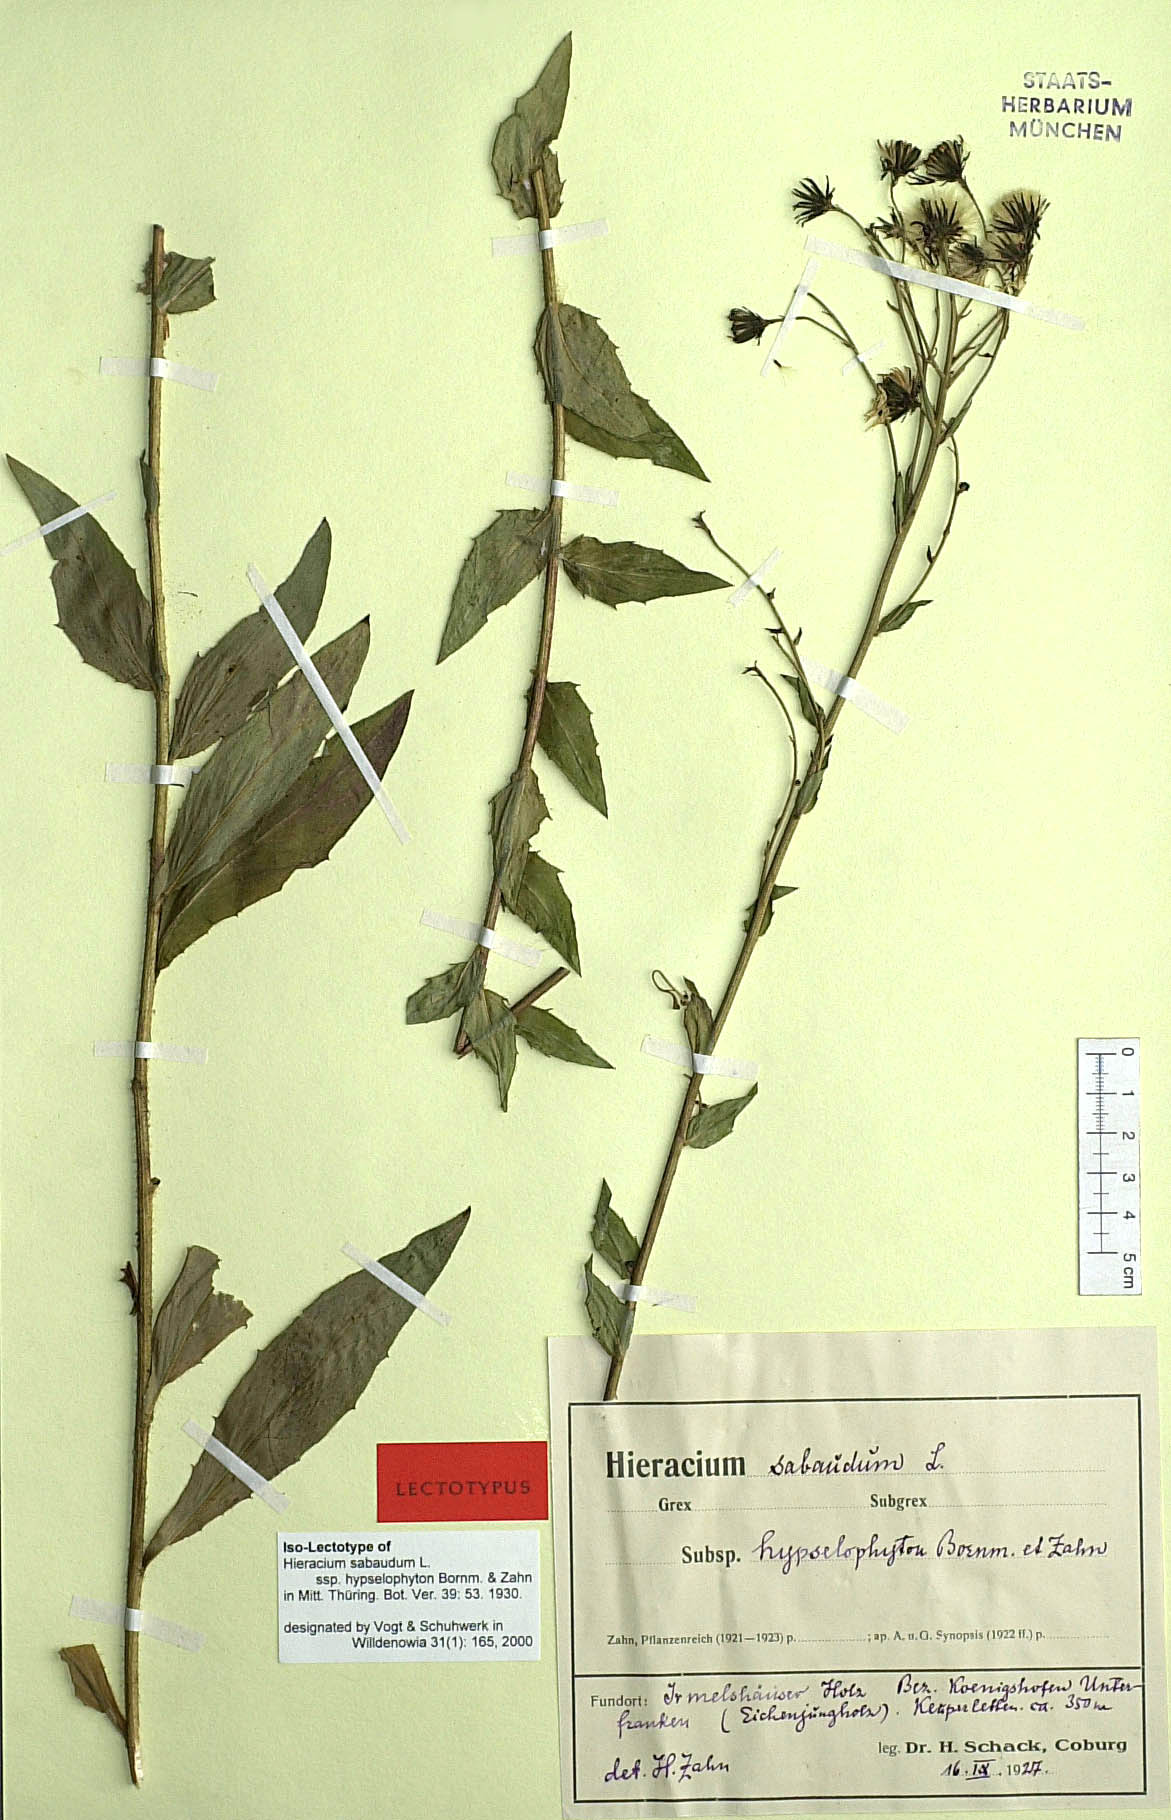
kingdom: Plantae
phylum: Tracheophyta
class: Magnoliopsida
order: Asterales
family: Asteraceae
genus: Hieracium
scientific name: Hieracium sabaudum
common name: New england hawkweed
